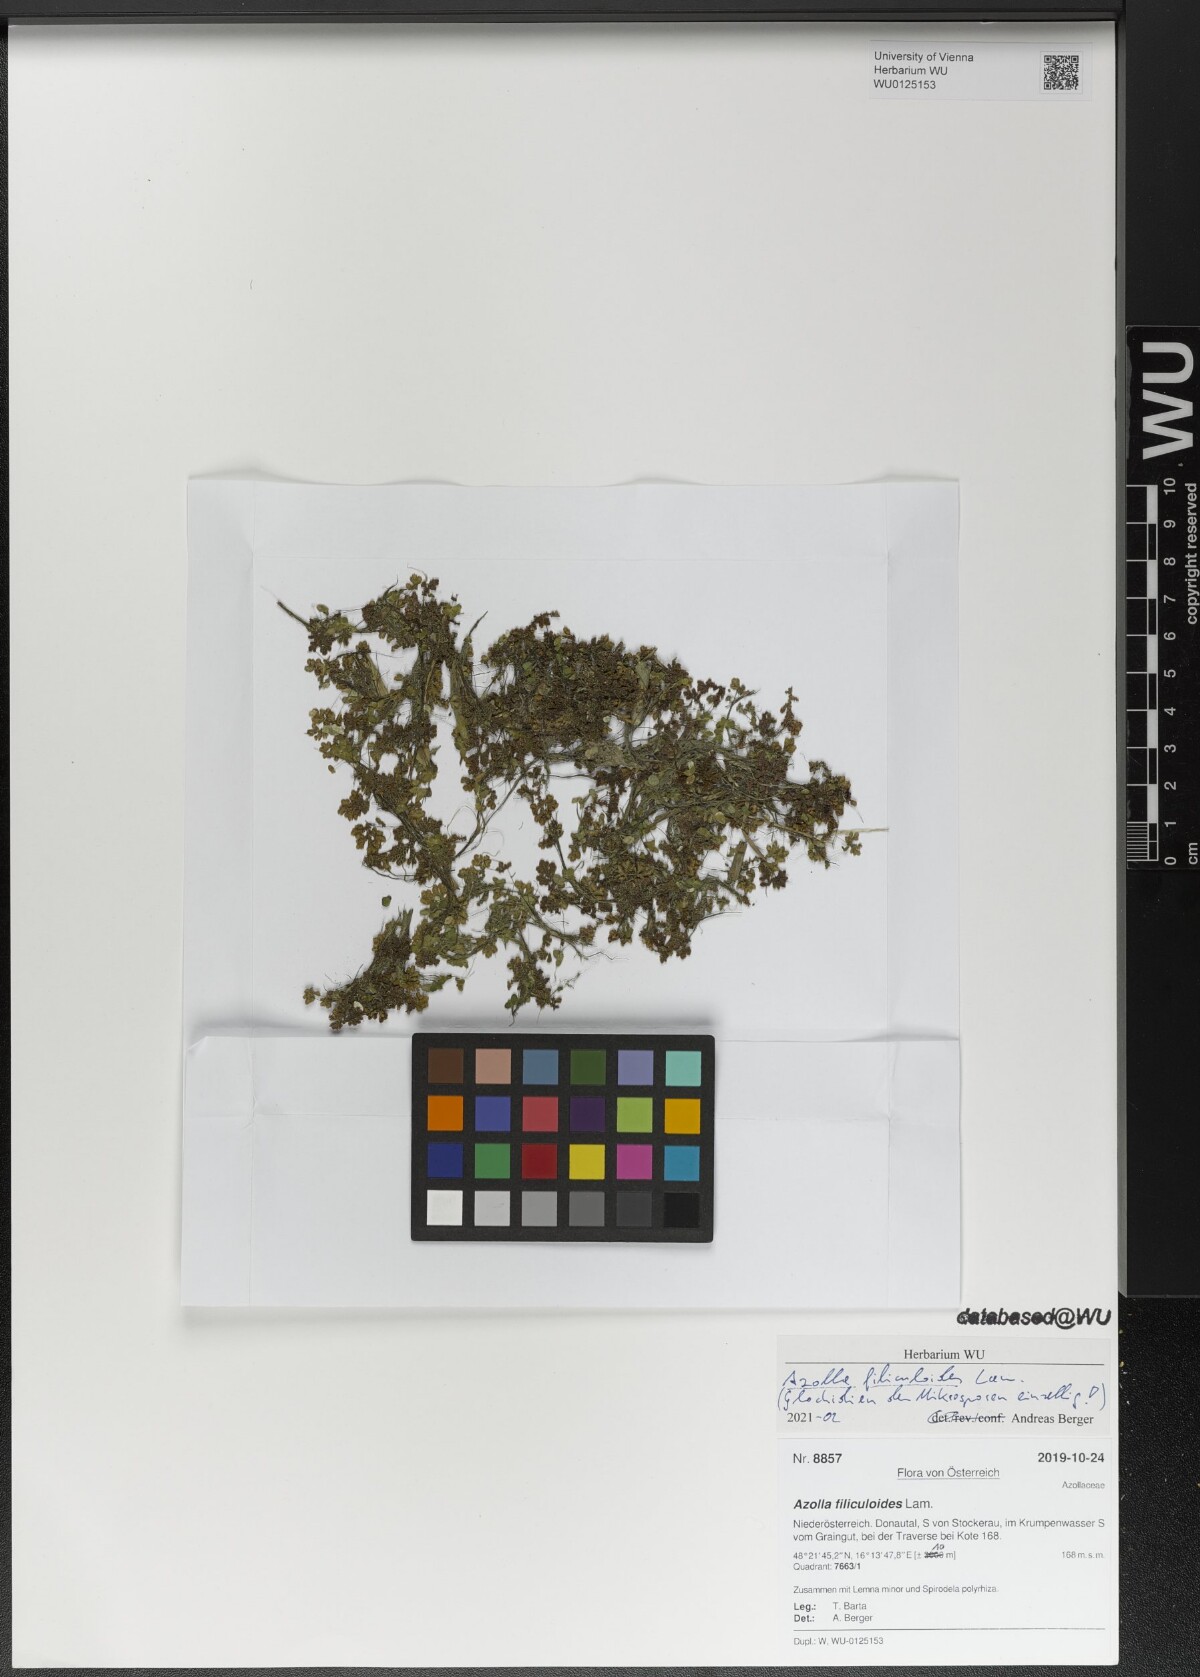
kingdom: Plantae
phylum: Tracheophyta
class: Polypodiopsida
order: Salviniales
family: Salviniaceae
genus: Azolla
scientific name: Azolla filiculoides
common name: Water fern
